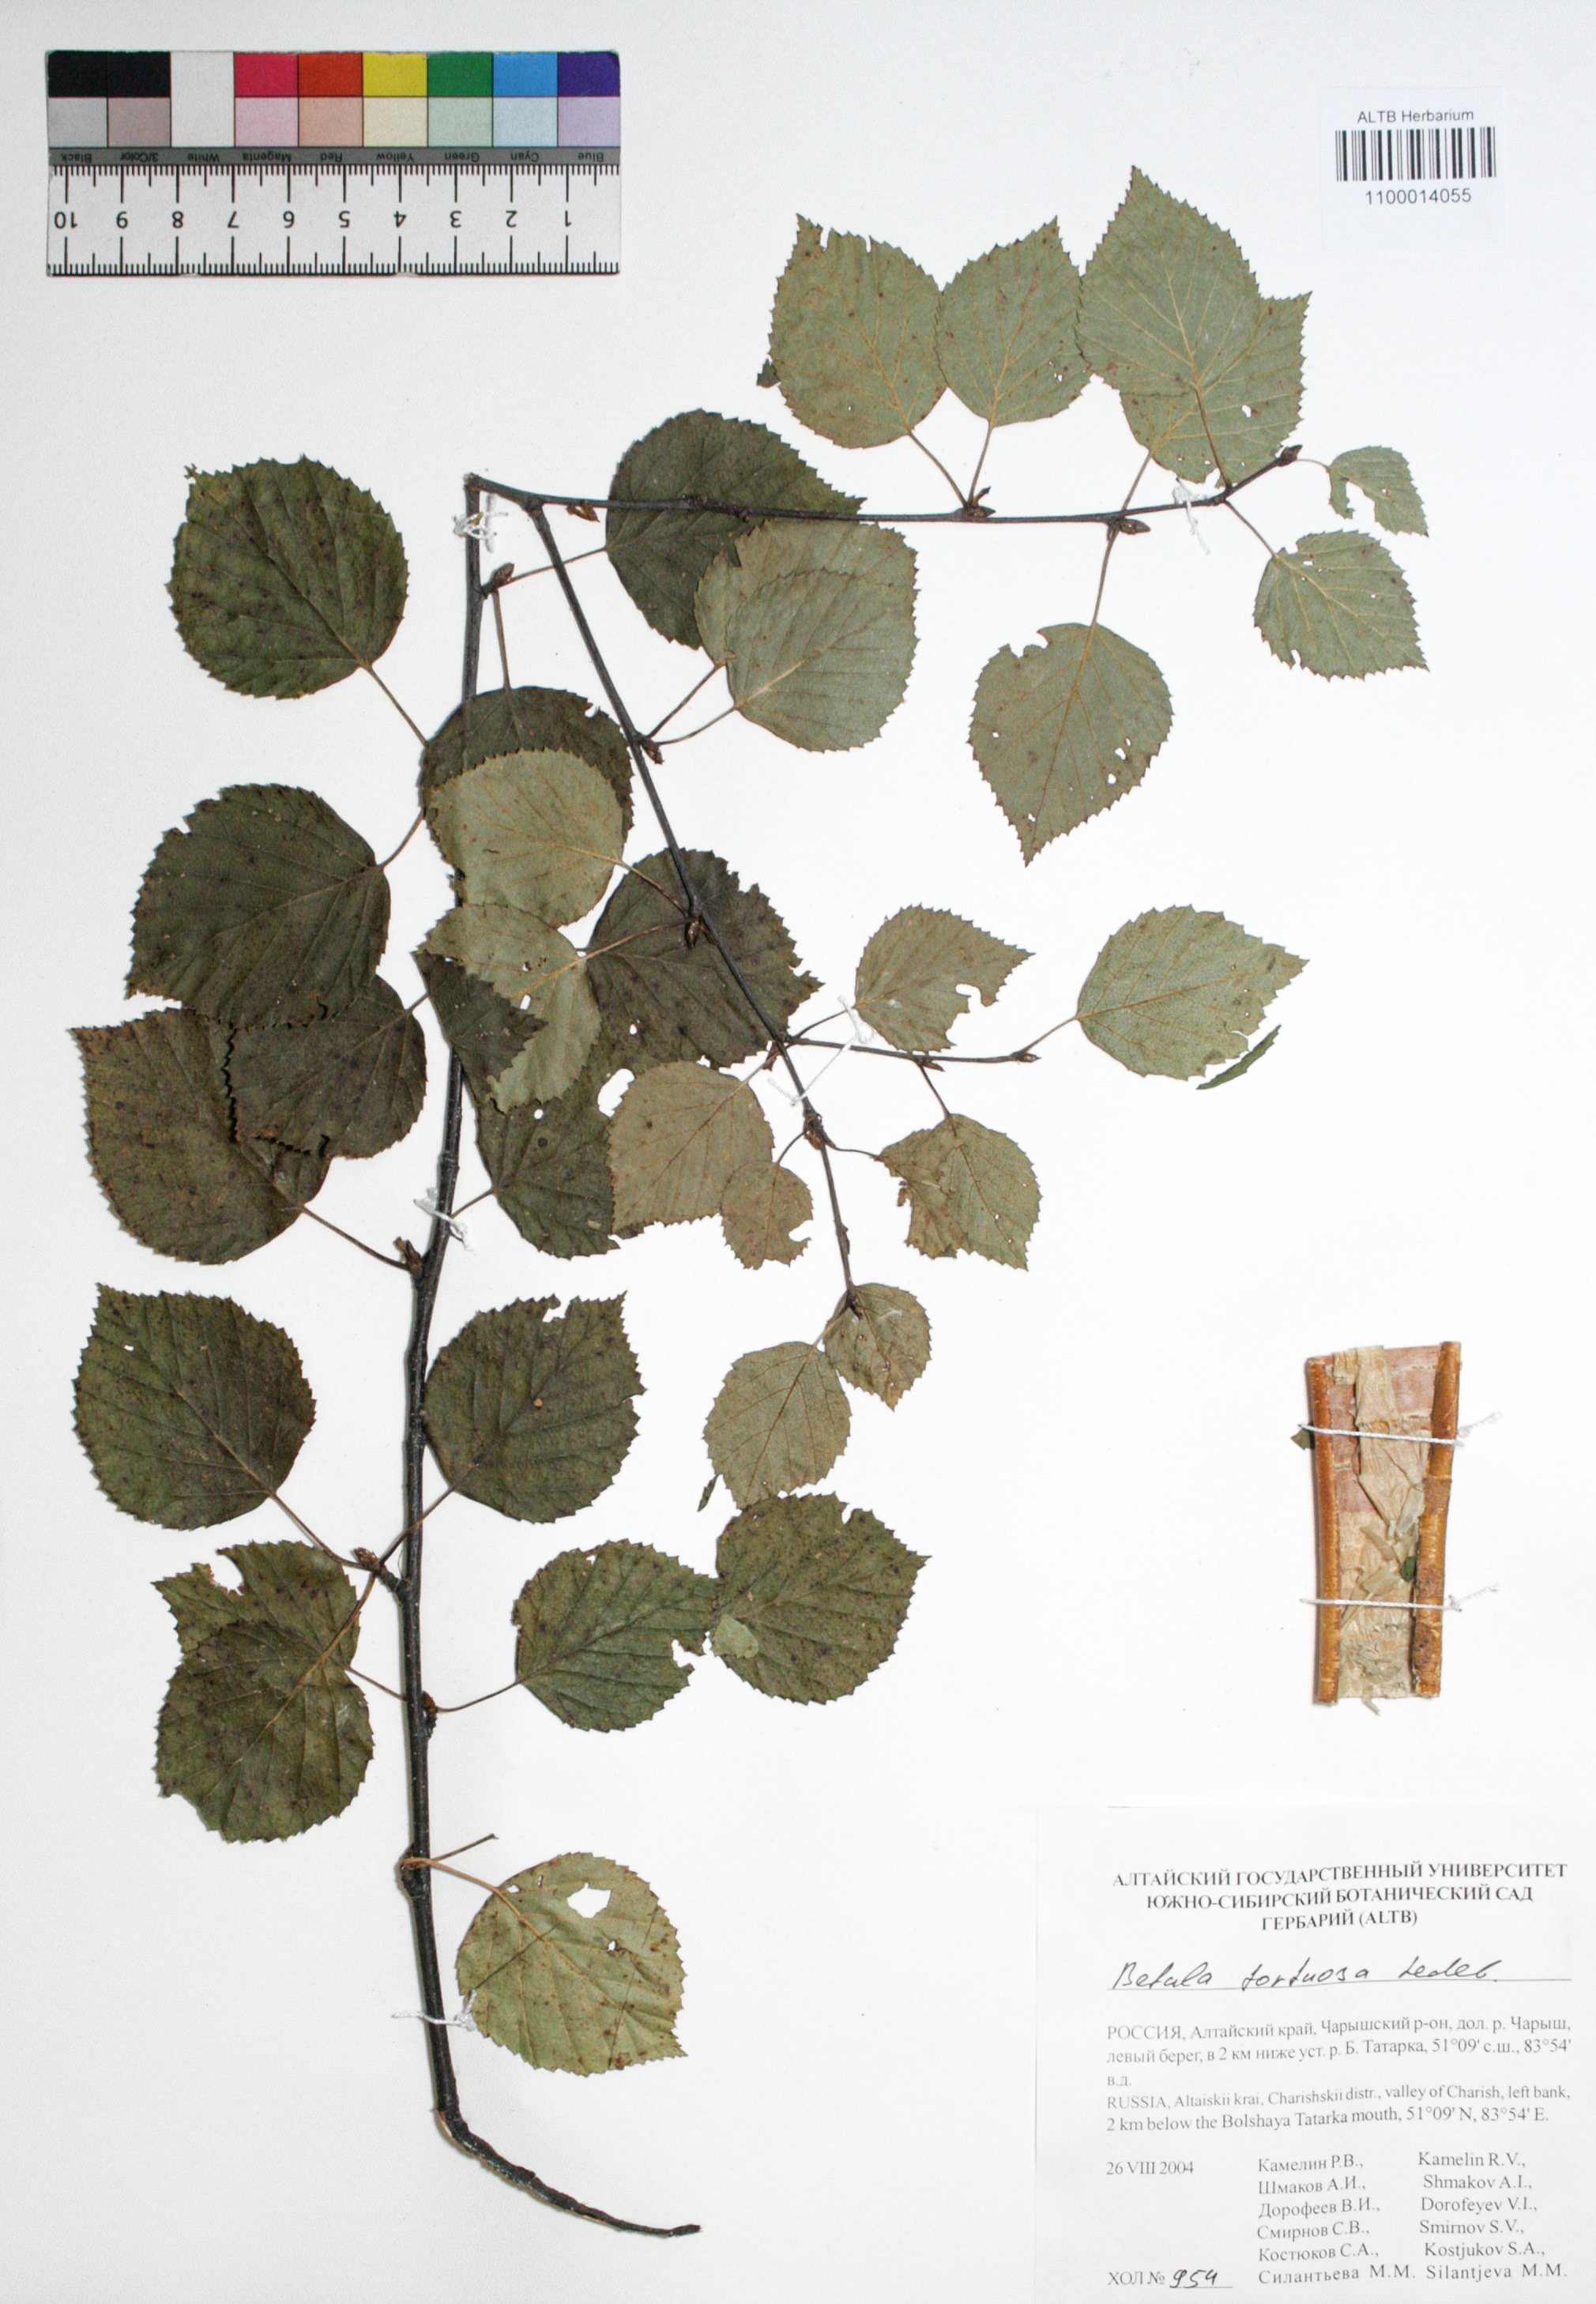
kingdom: Plantae
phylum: Tracheophyta
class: Magnoliopsida
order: Fagales
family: Betulaceae
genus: Betula
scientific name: Betula pubescens
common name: Downy birch
